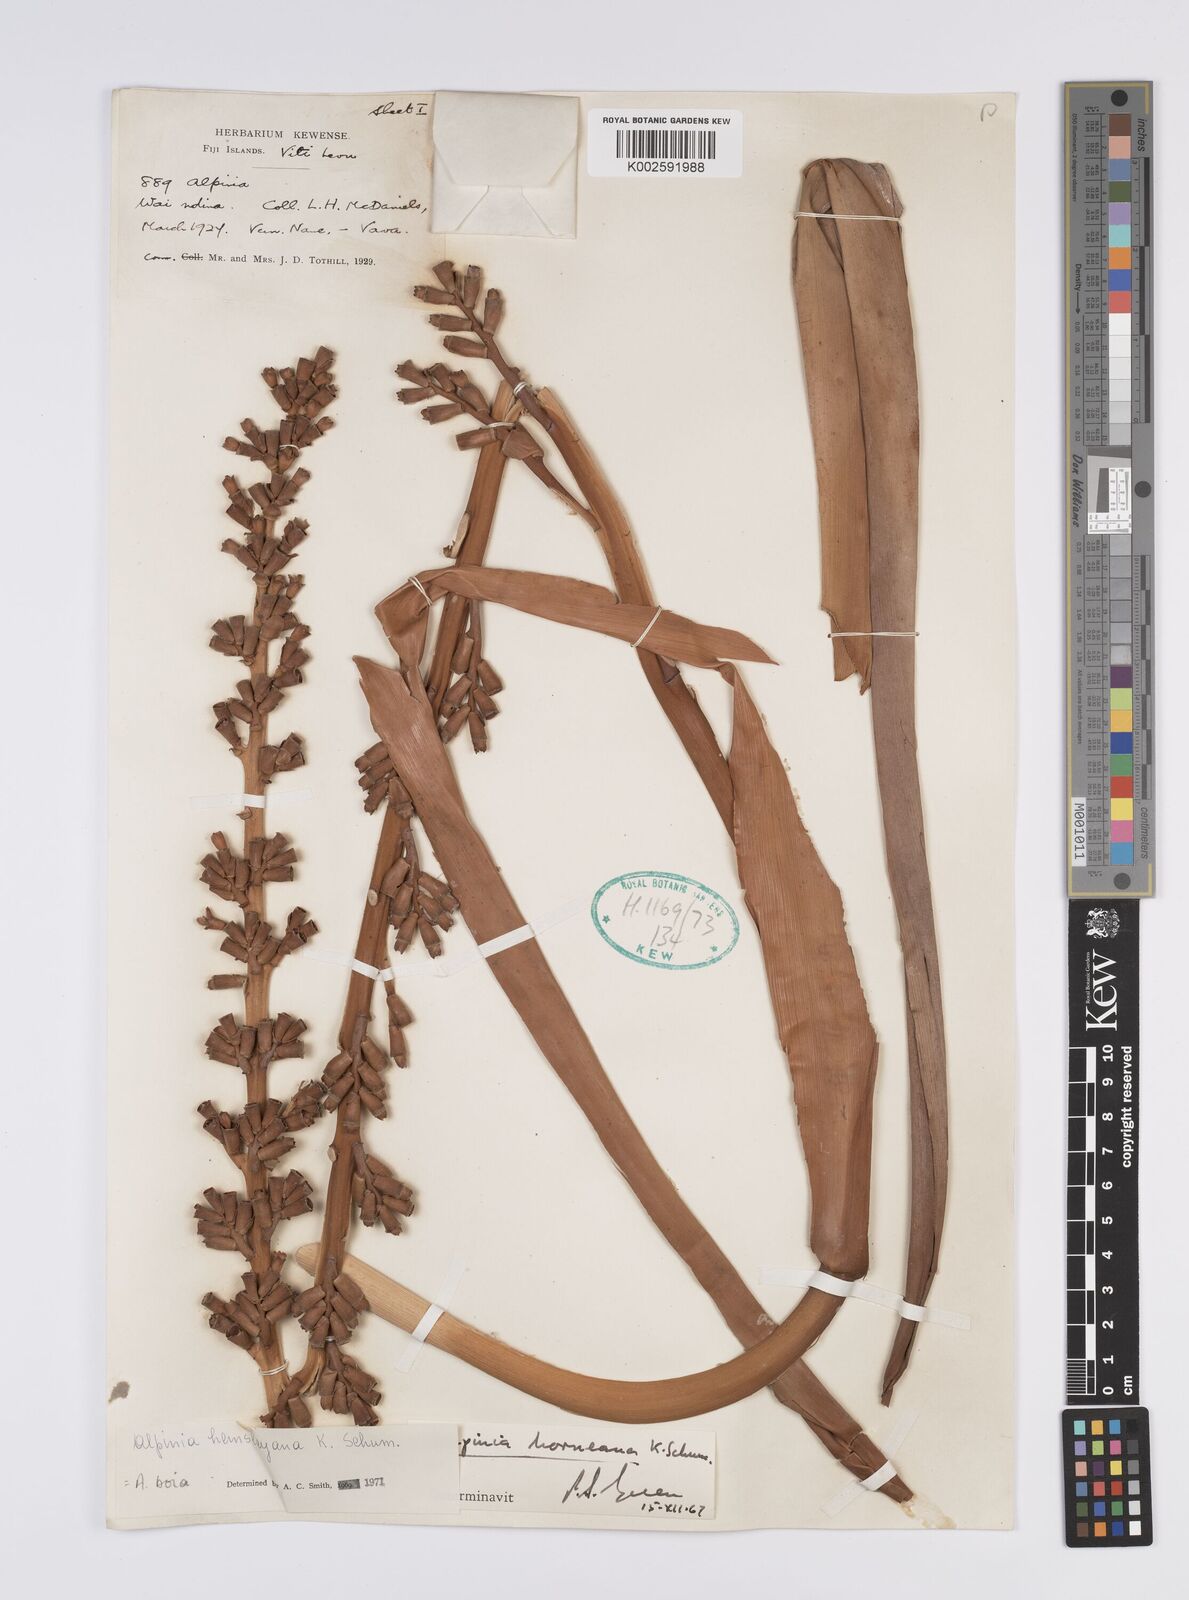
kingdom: Plantae
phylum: Tracheophyta
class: Liliopsida
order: Zingiberales
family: Zingiberaceae
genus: Alpinia
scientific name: Alpinia boia
